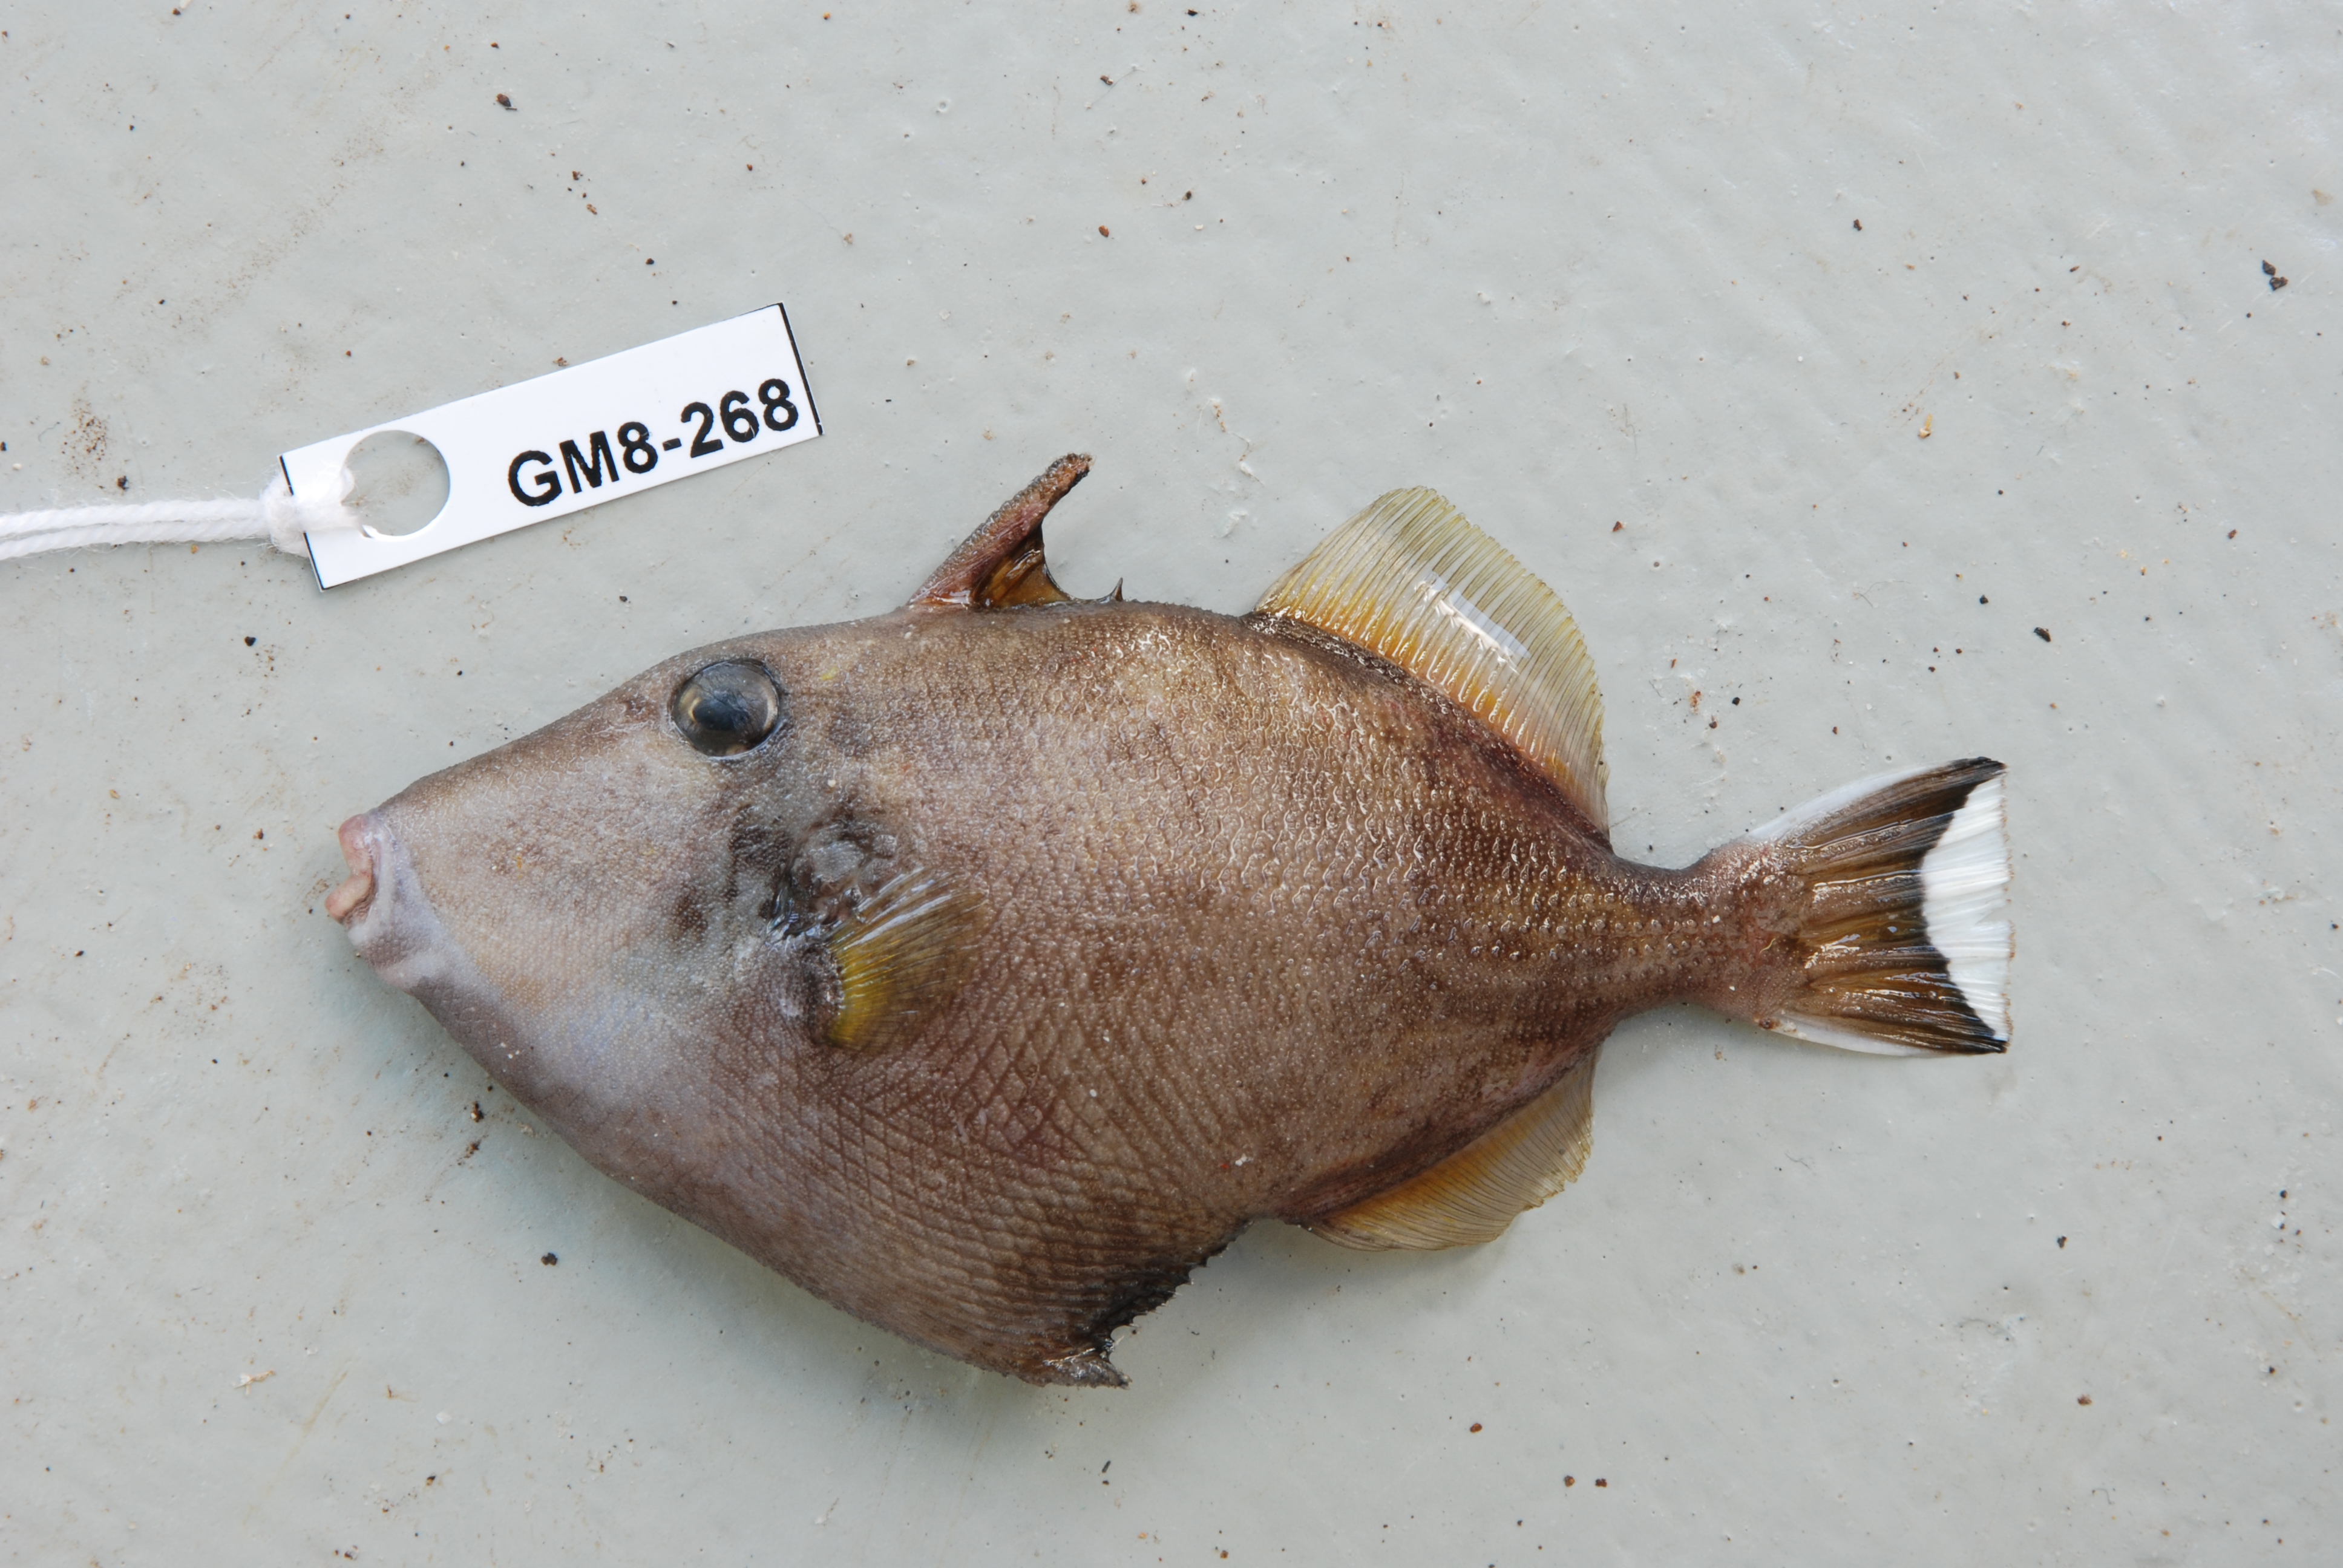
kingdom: Animalia
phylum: Chordata
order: Tetraodontiformes
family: Balistidae
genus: Sufflamen
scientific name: Sufflamen chrysopterum
